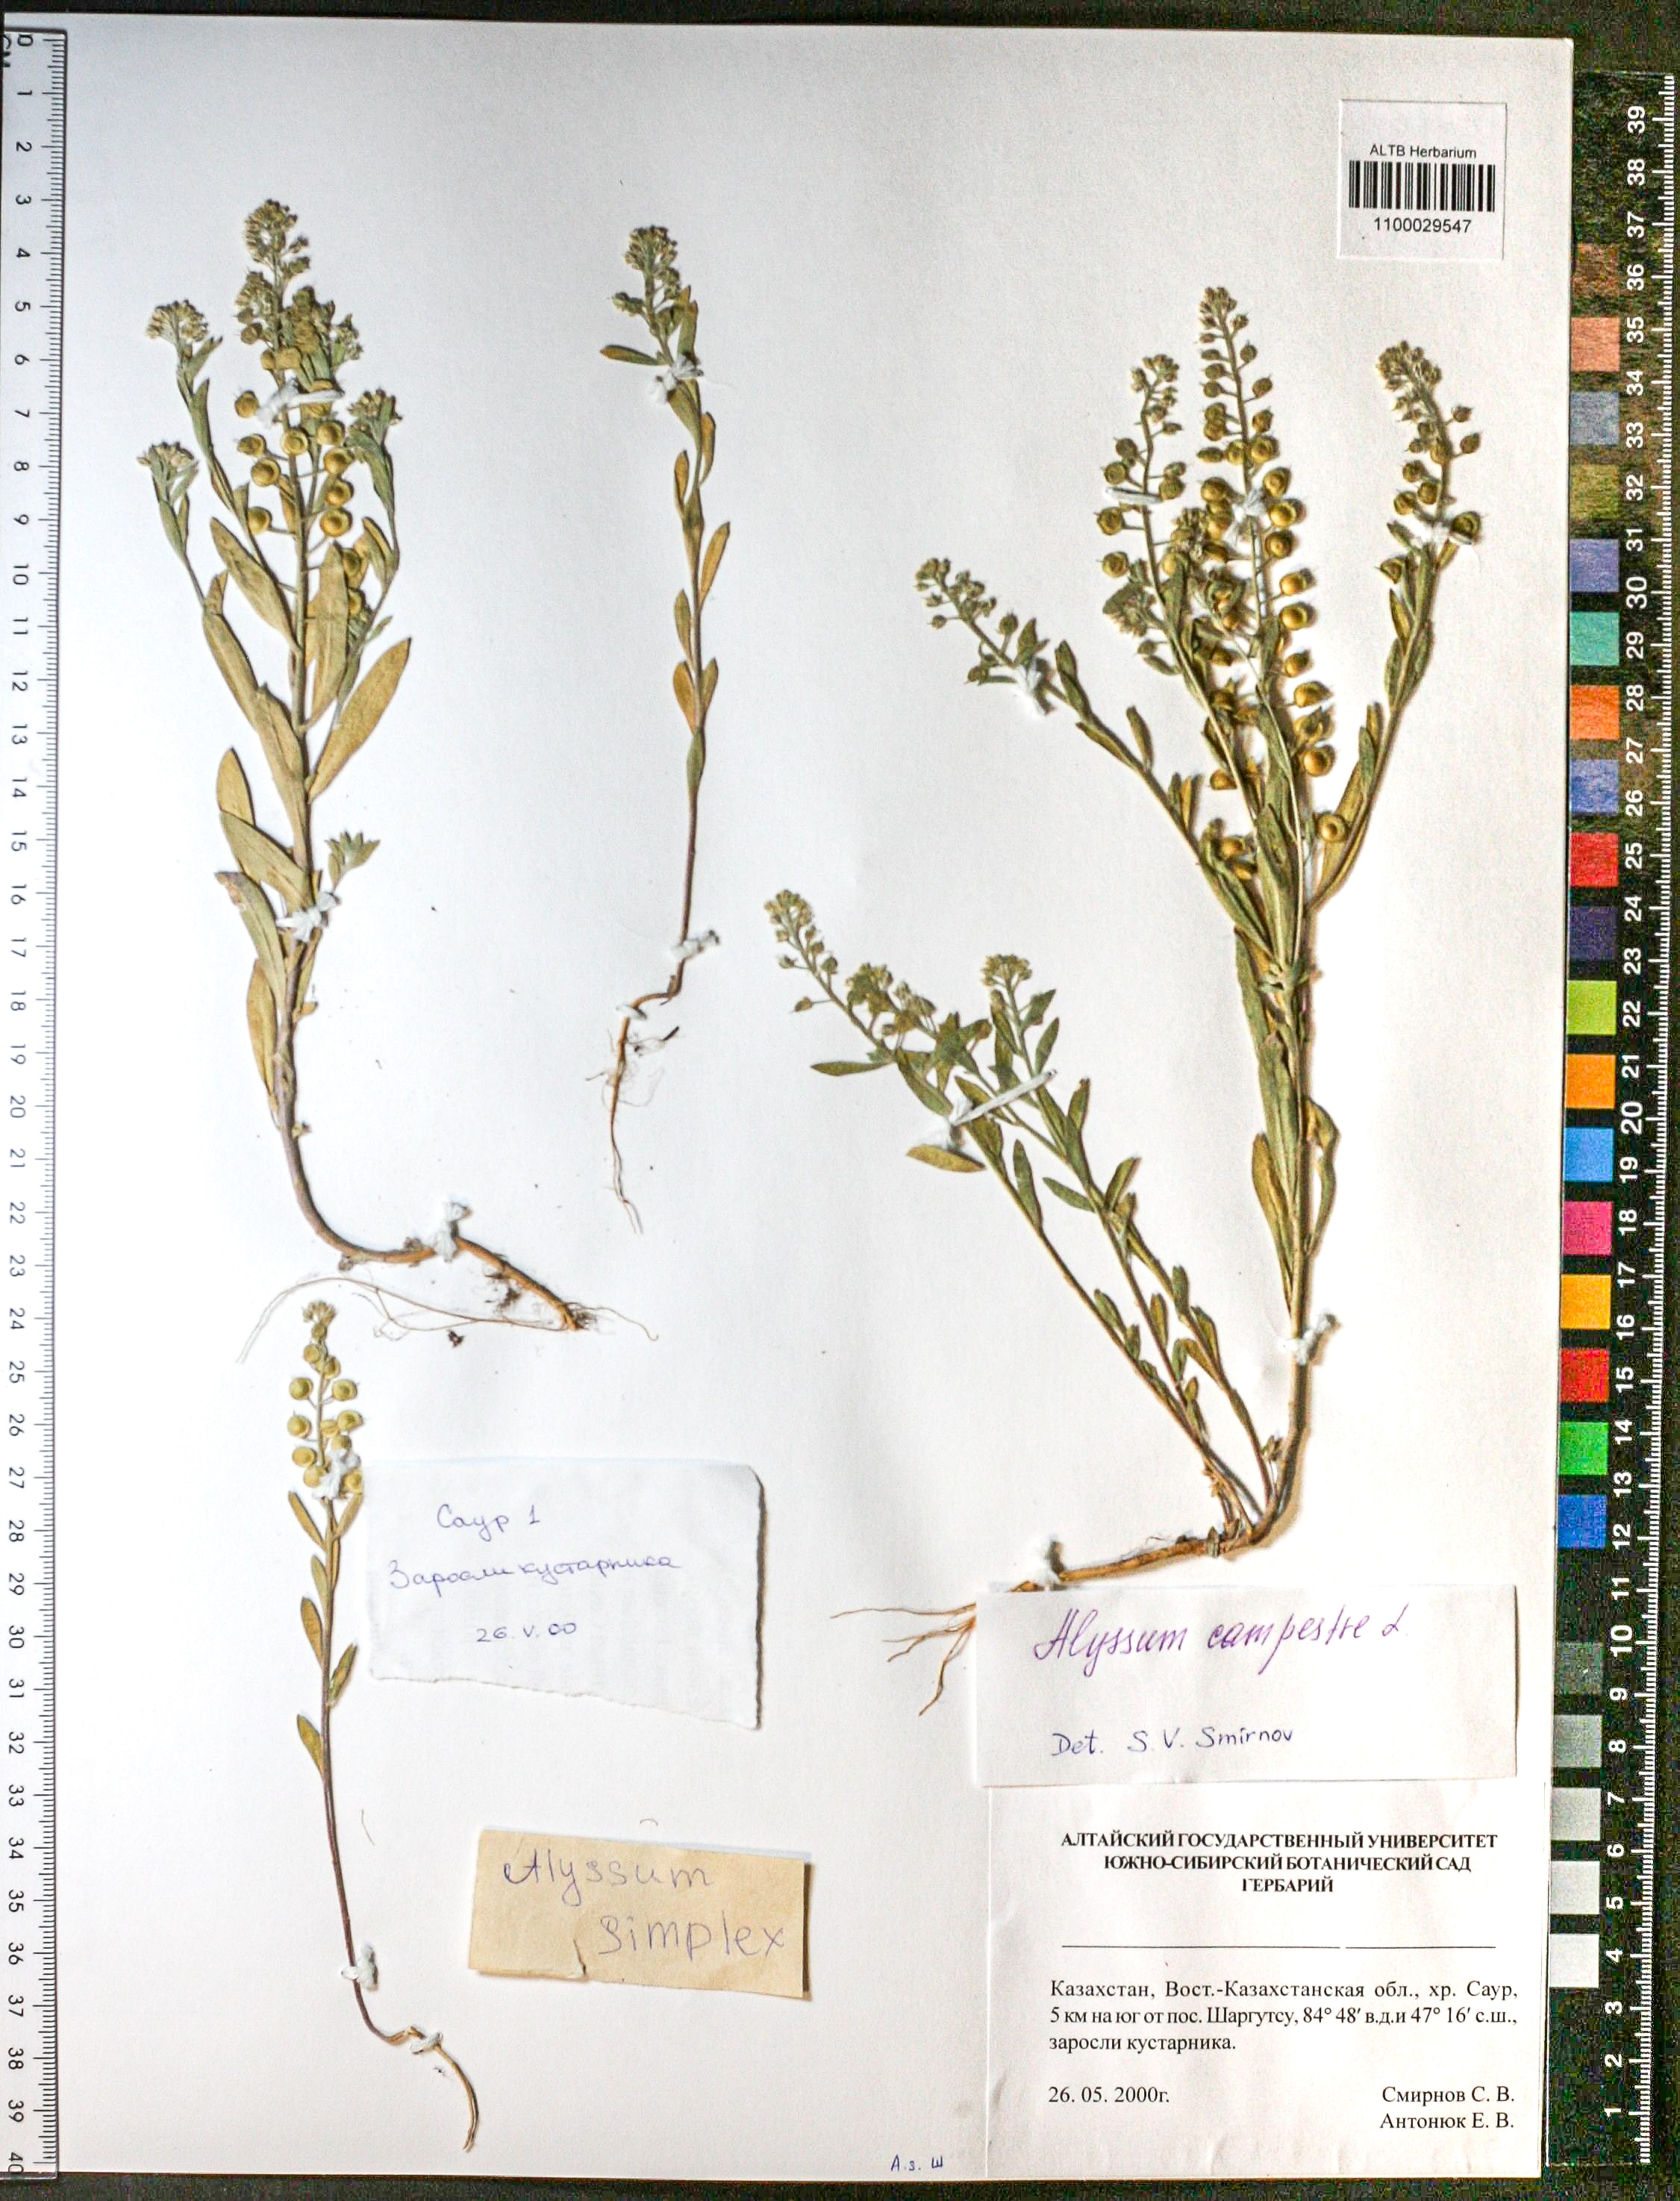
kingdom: Plantae
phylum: Tracheophyta
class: Magnoliopsida
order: Brassicales
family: Brassicaceae
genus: Alyssum
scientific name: Alyssum simplex
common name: Alyssum
